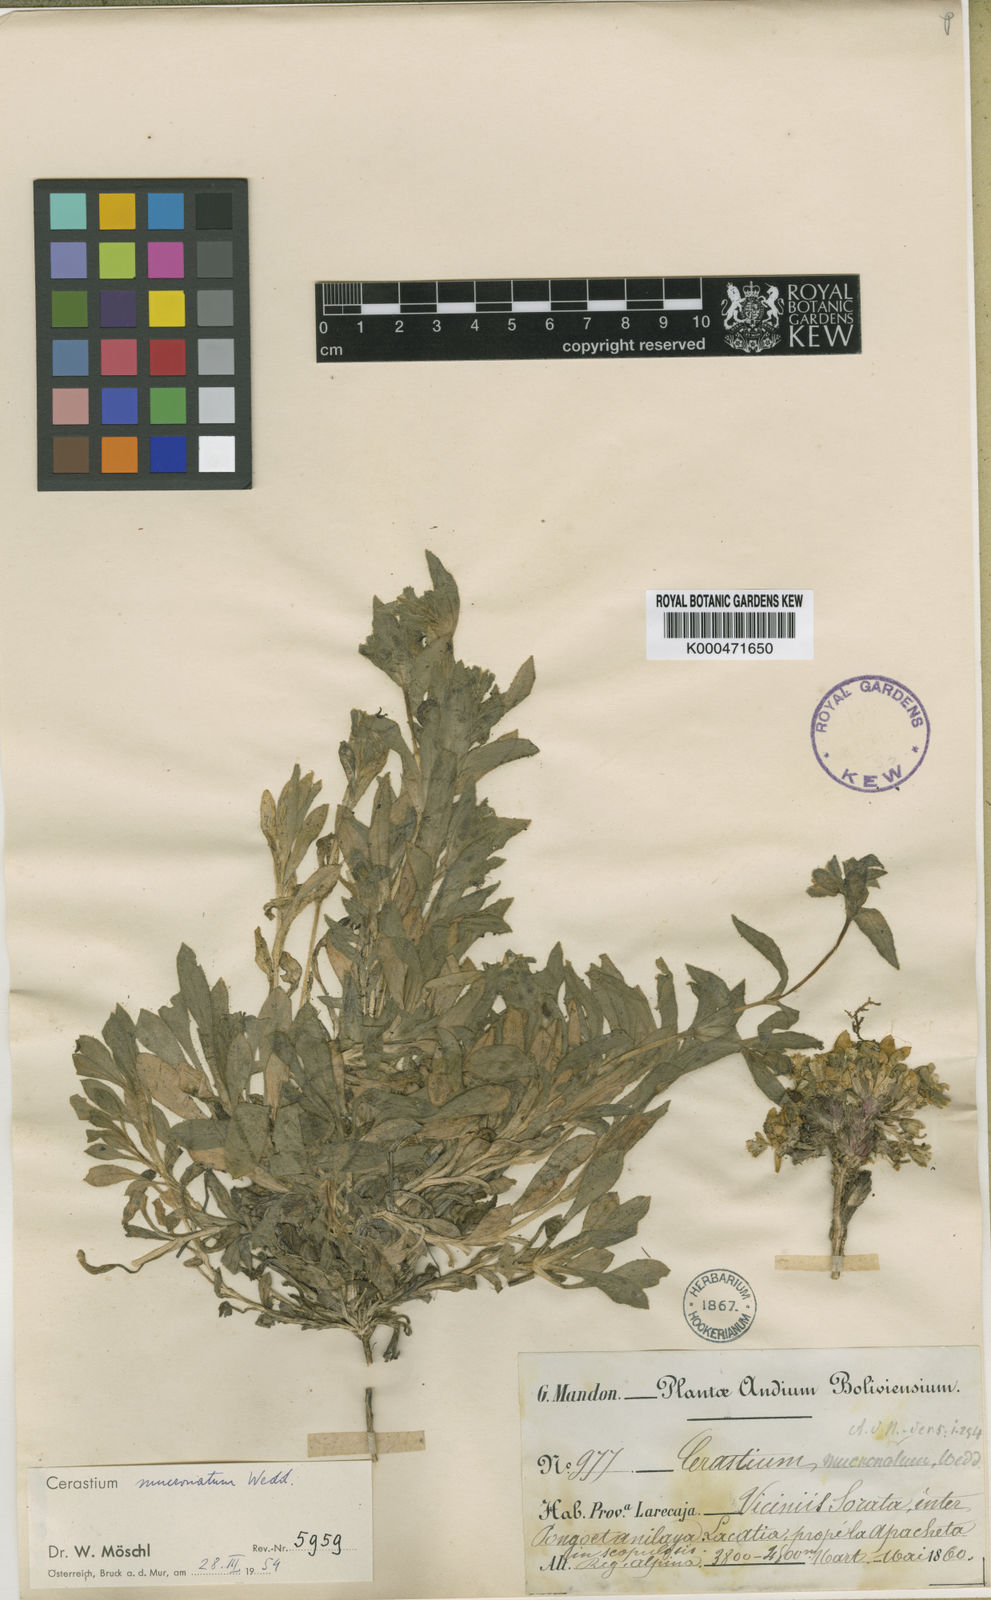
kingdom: Plantae
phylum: Tracheophyta
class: Magnoliopsida
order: Caryophyllales
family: Caryophyllaceae
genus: Cerastium
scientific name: Cerastium mucronatum
